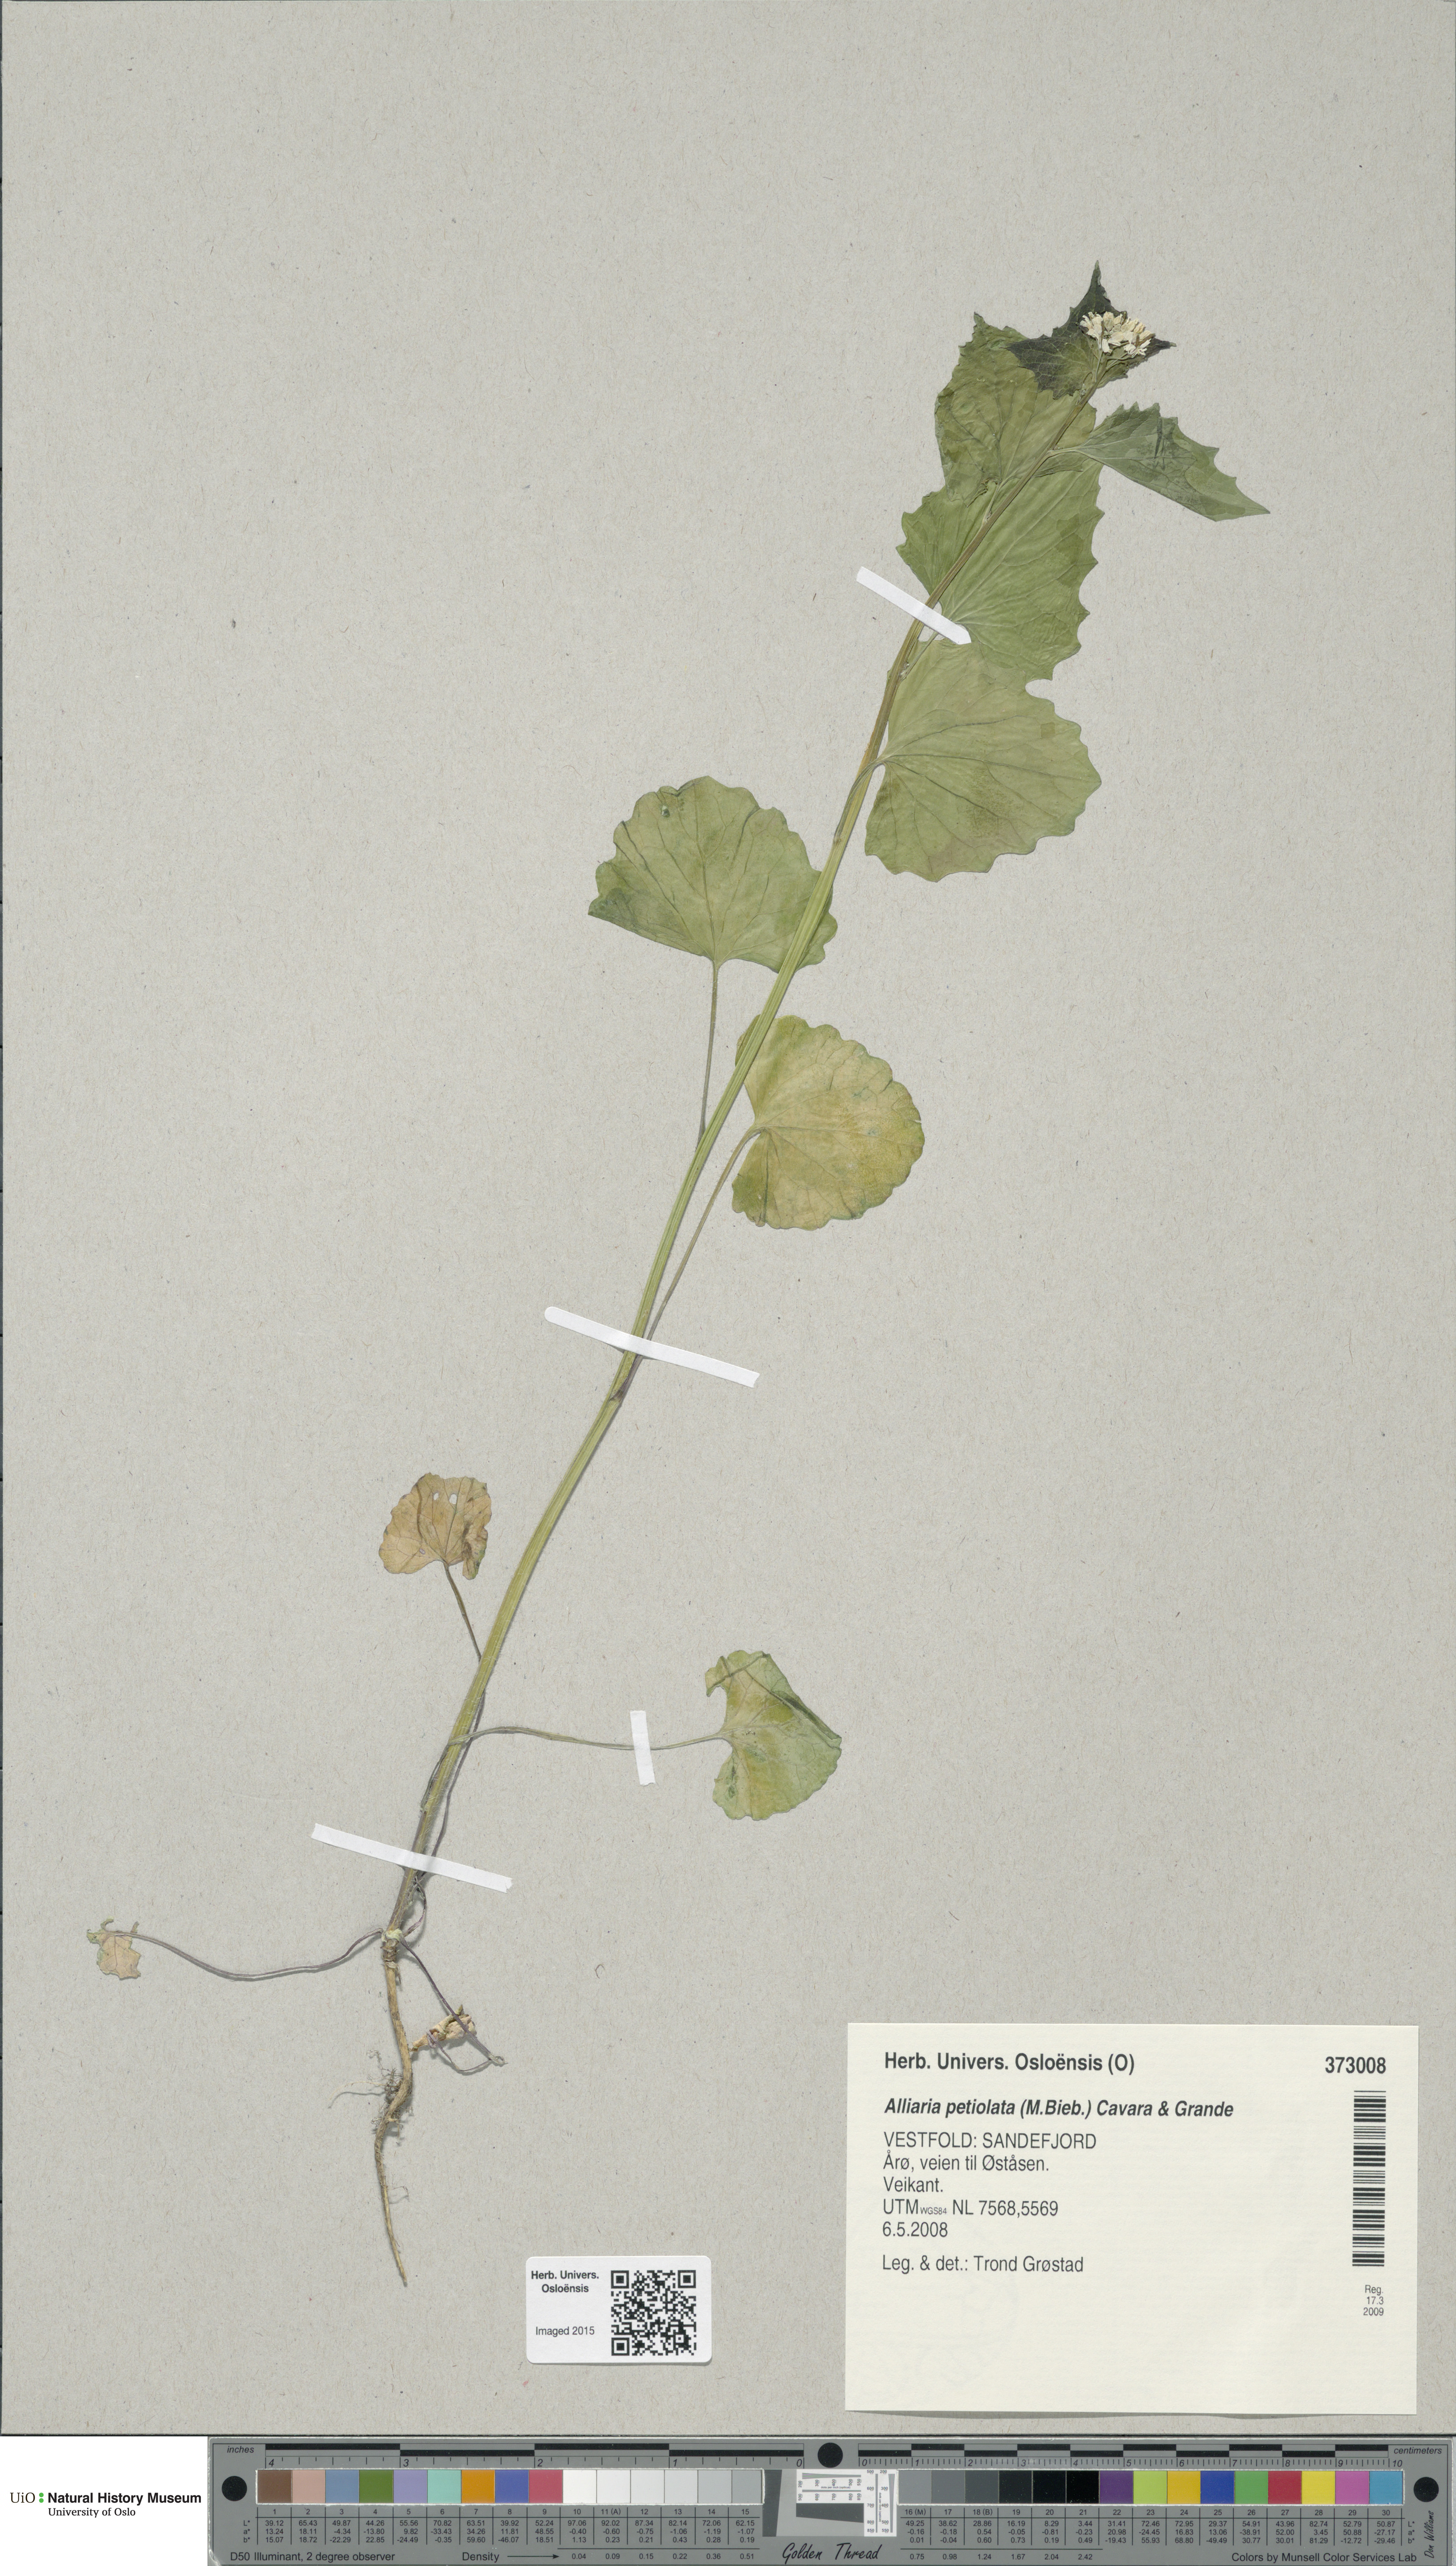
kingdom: Plantae
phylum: Tracheophyta
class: Magnoliopsida
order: Brassicales
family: Brassicaceae
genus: Alliaria
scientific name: Alliaria petiolata
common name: Garlic mustard
